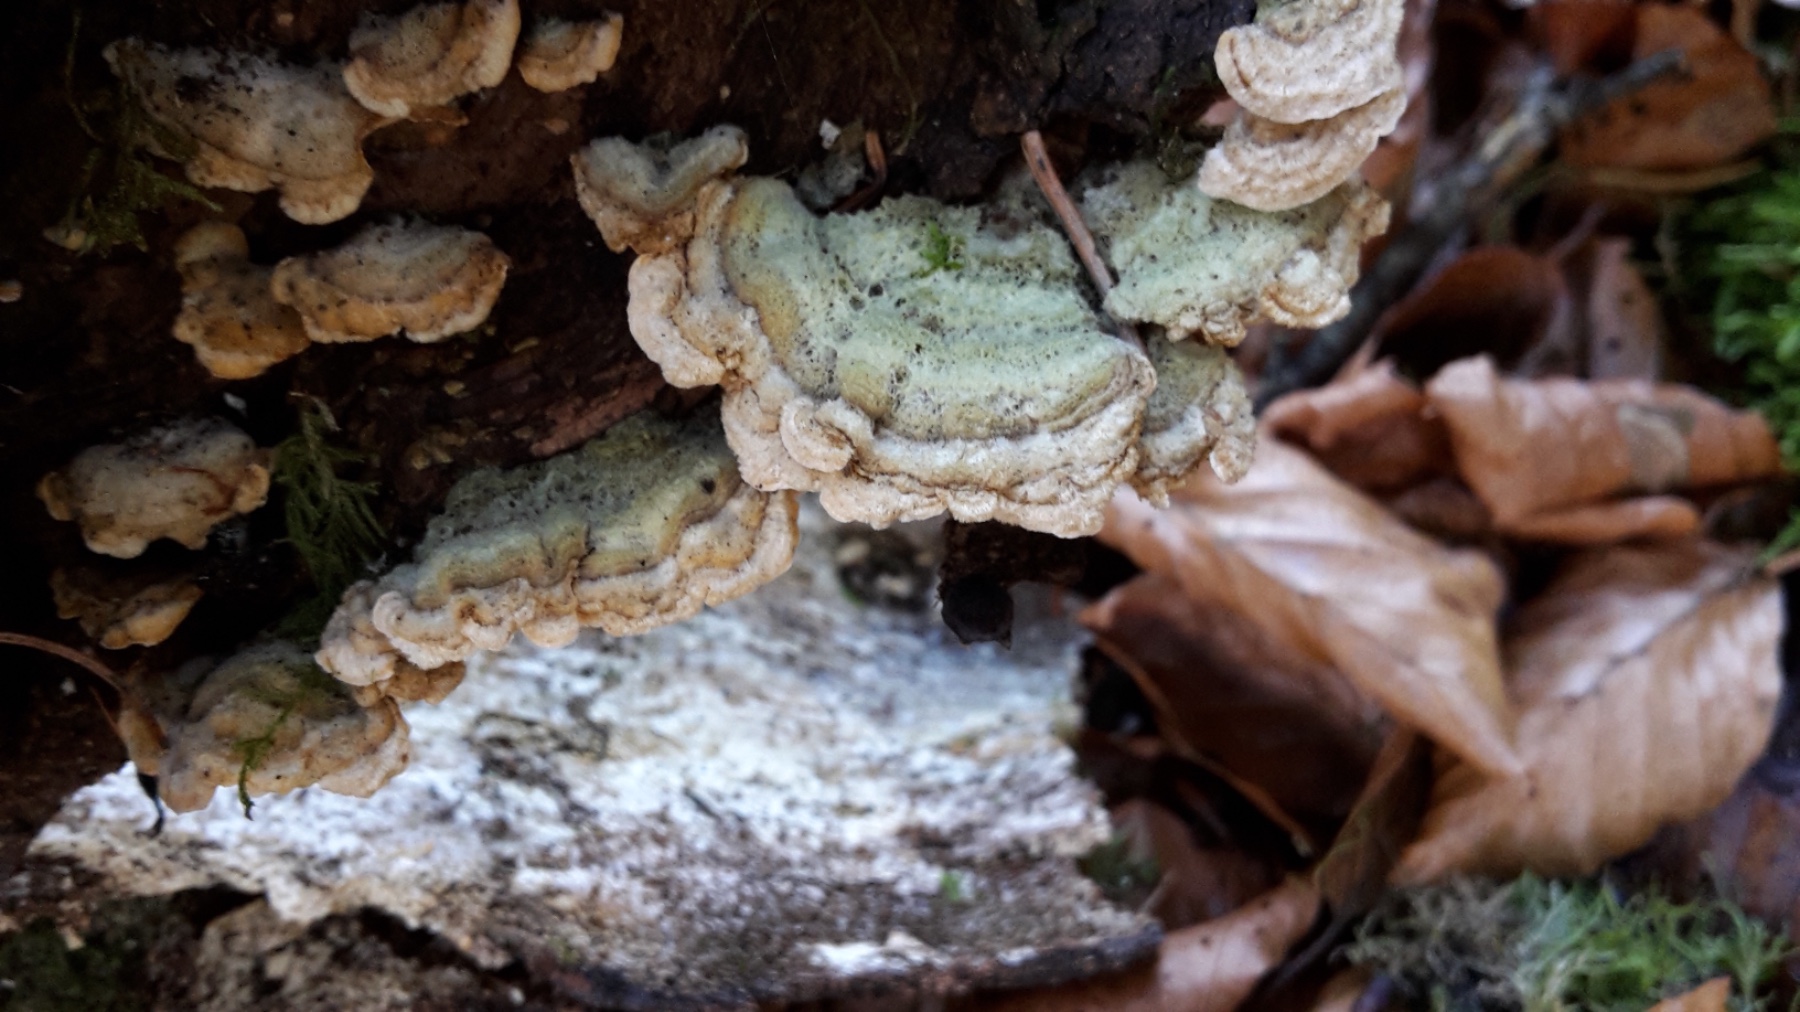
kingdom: Fungi
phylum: Basidiomycota
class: Agaricomycetes
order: Russulales
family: Stereaceae
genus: Stereum
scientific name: Stereum hirsutum
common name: håret lædersvamp
